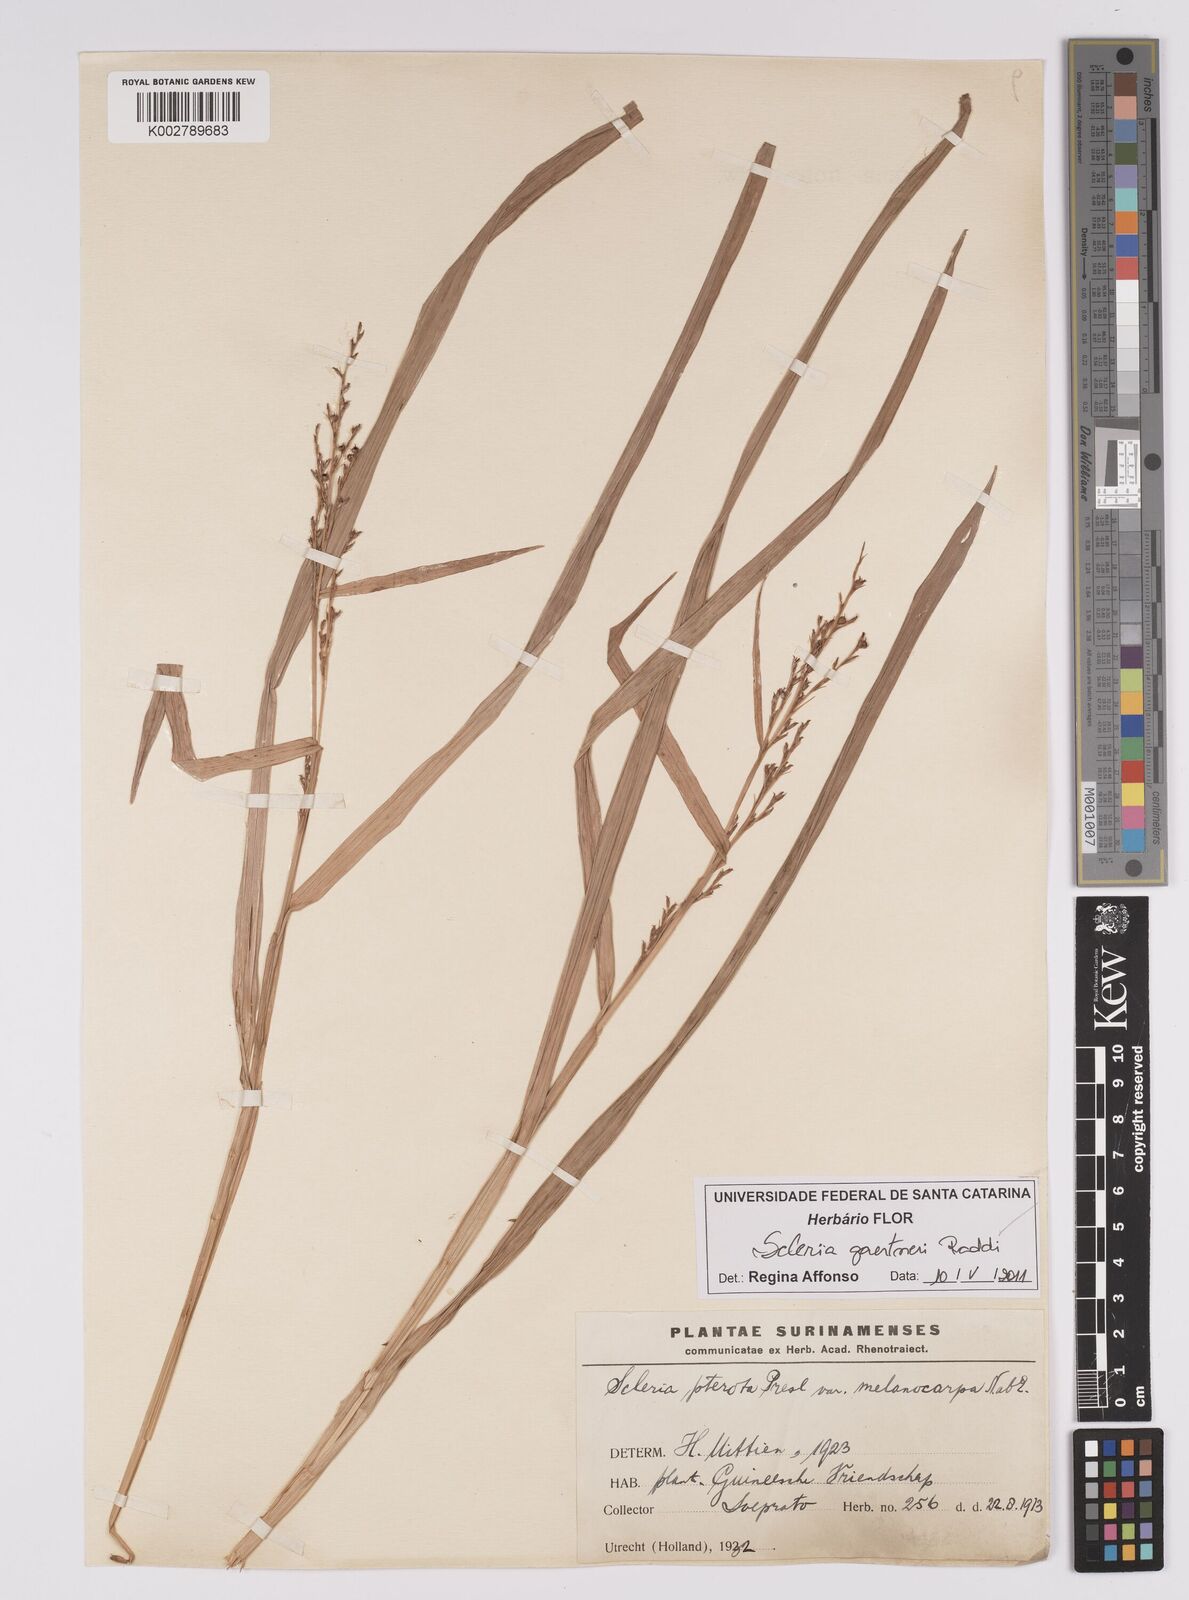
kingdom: Plantae
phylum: Tracheophyta
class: Liliopsida
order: Poales
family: Cyperaceae
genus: Scleria
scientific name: Scleria gaertneri
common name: Cortadera blanca
